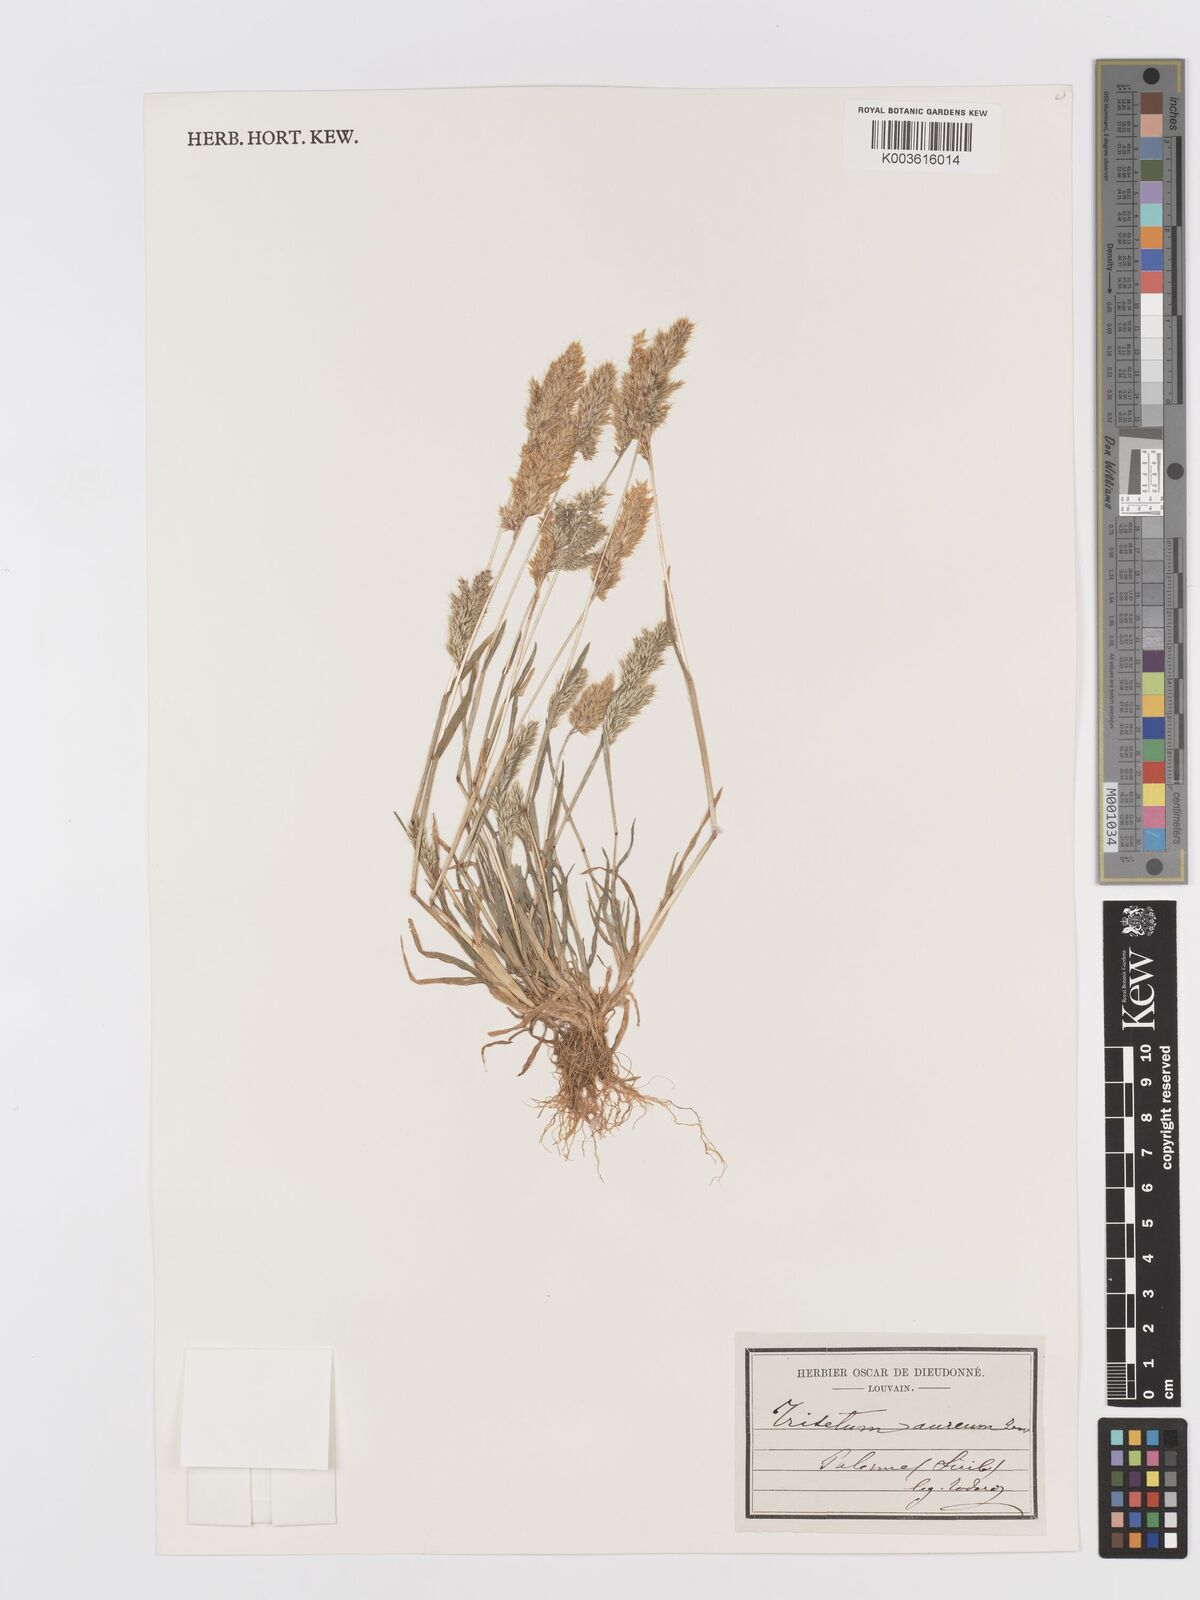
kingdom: Plantae
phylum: Tracheophyta
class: Liliopsida
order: Poales
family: Poaceae
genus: Trisetaria
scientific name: Trisetaria aurea
